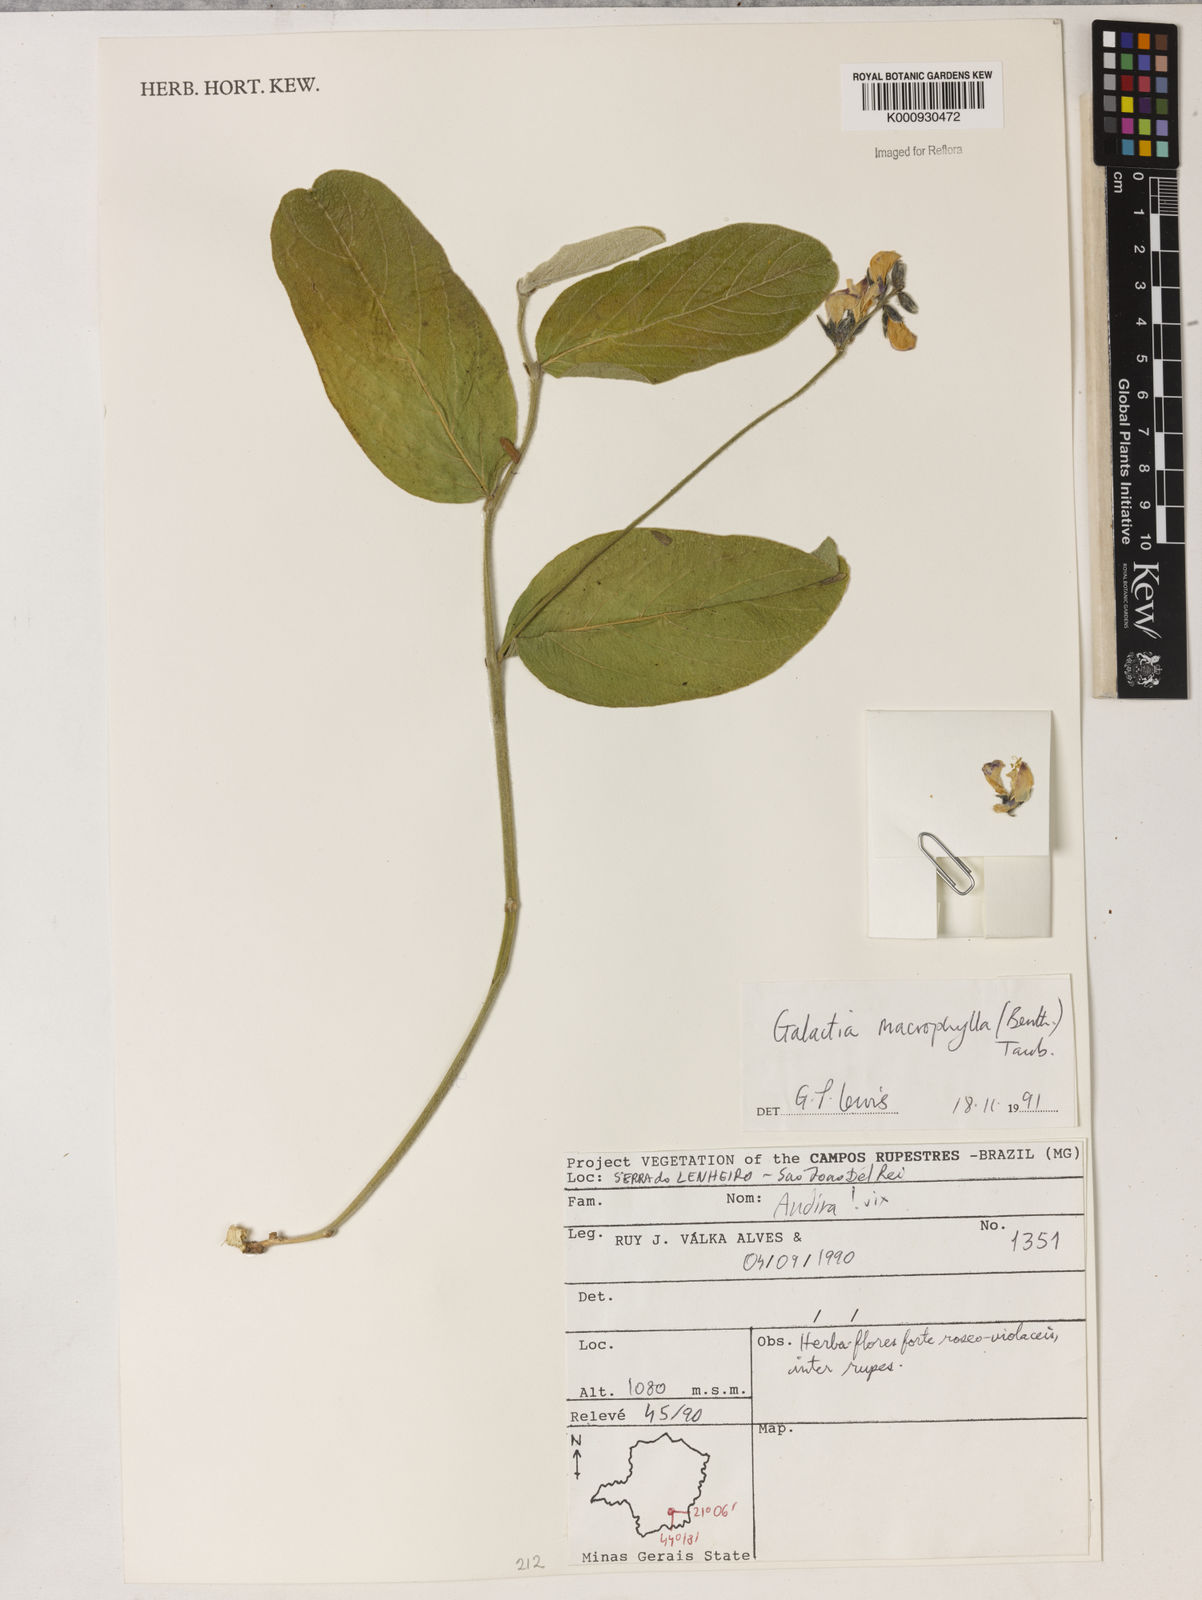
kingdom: Plantae
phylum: Tracheophyta
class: Magnoliopsida
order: Fabales
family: Fabaceae
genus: Cerradicola
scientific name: Cerradicola boavista
